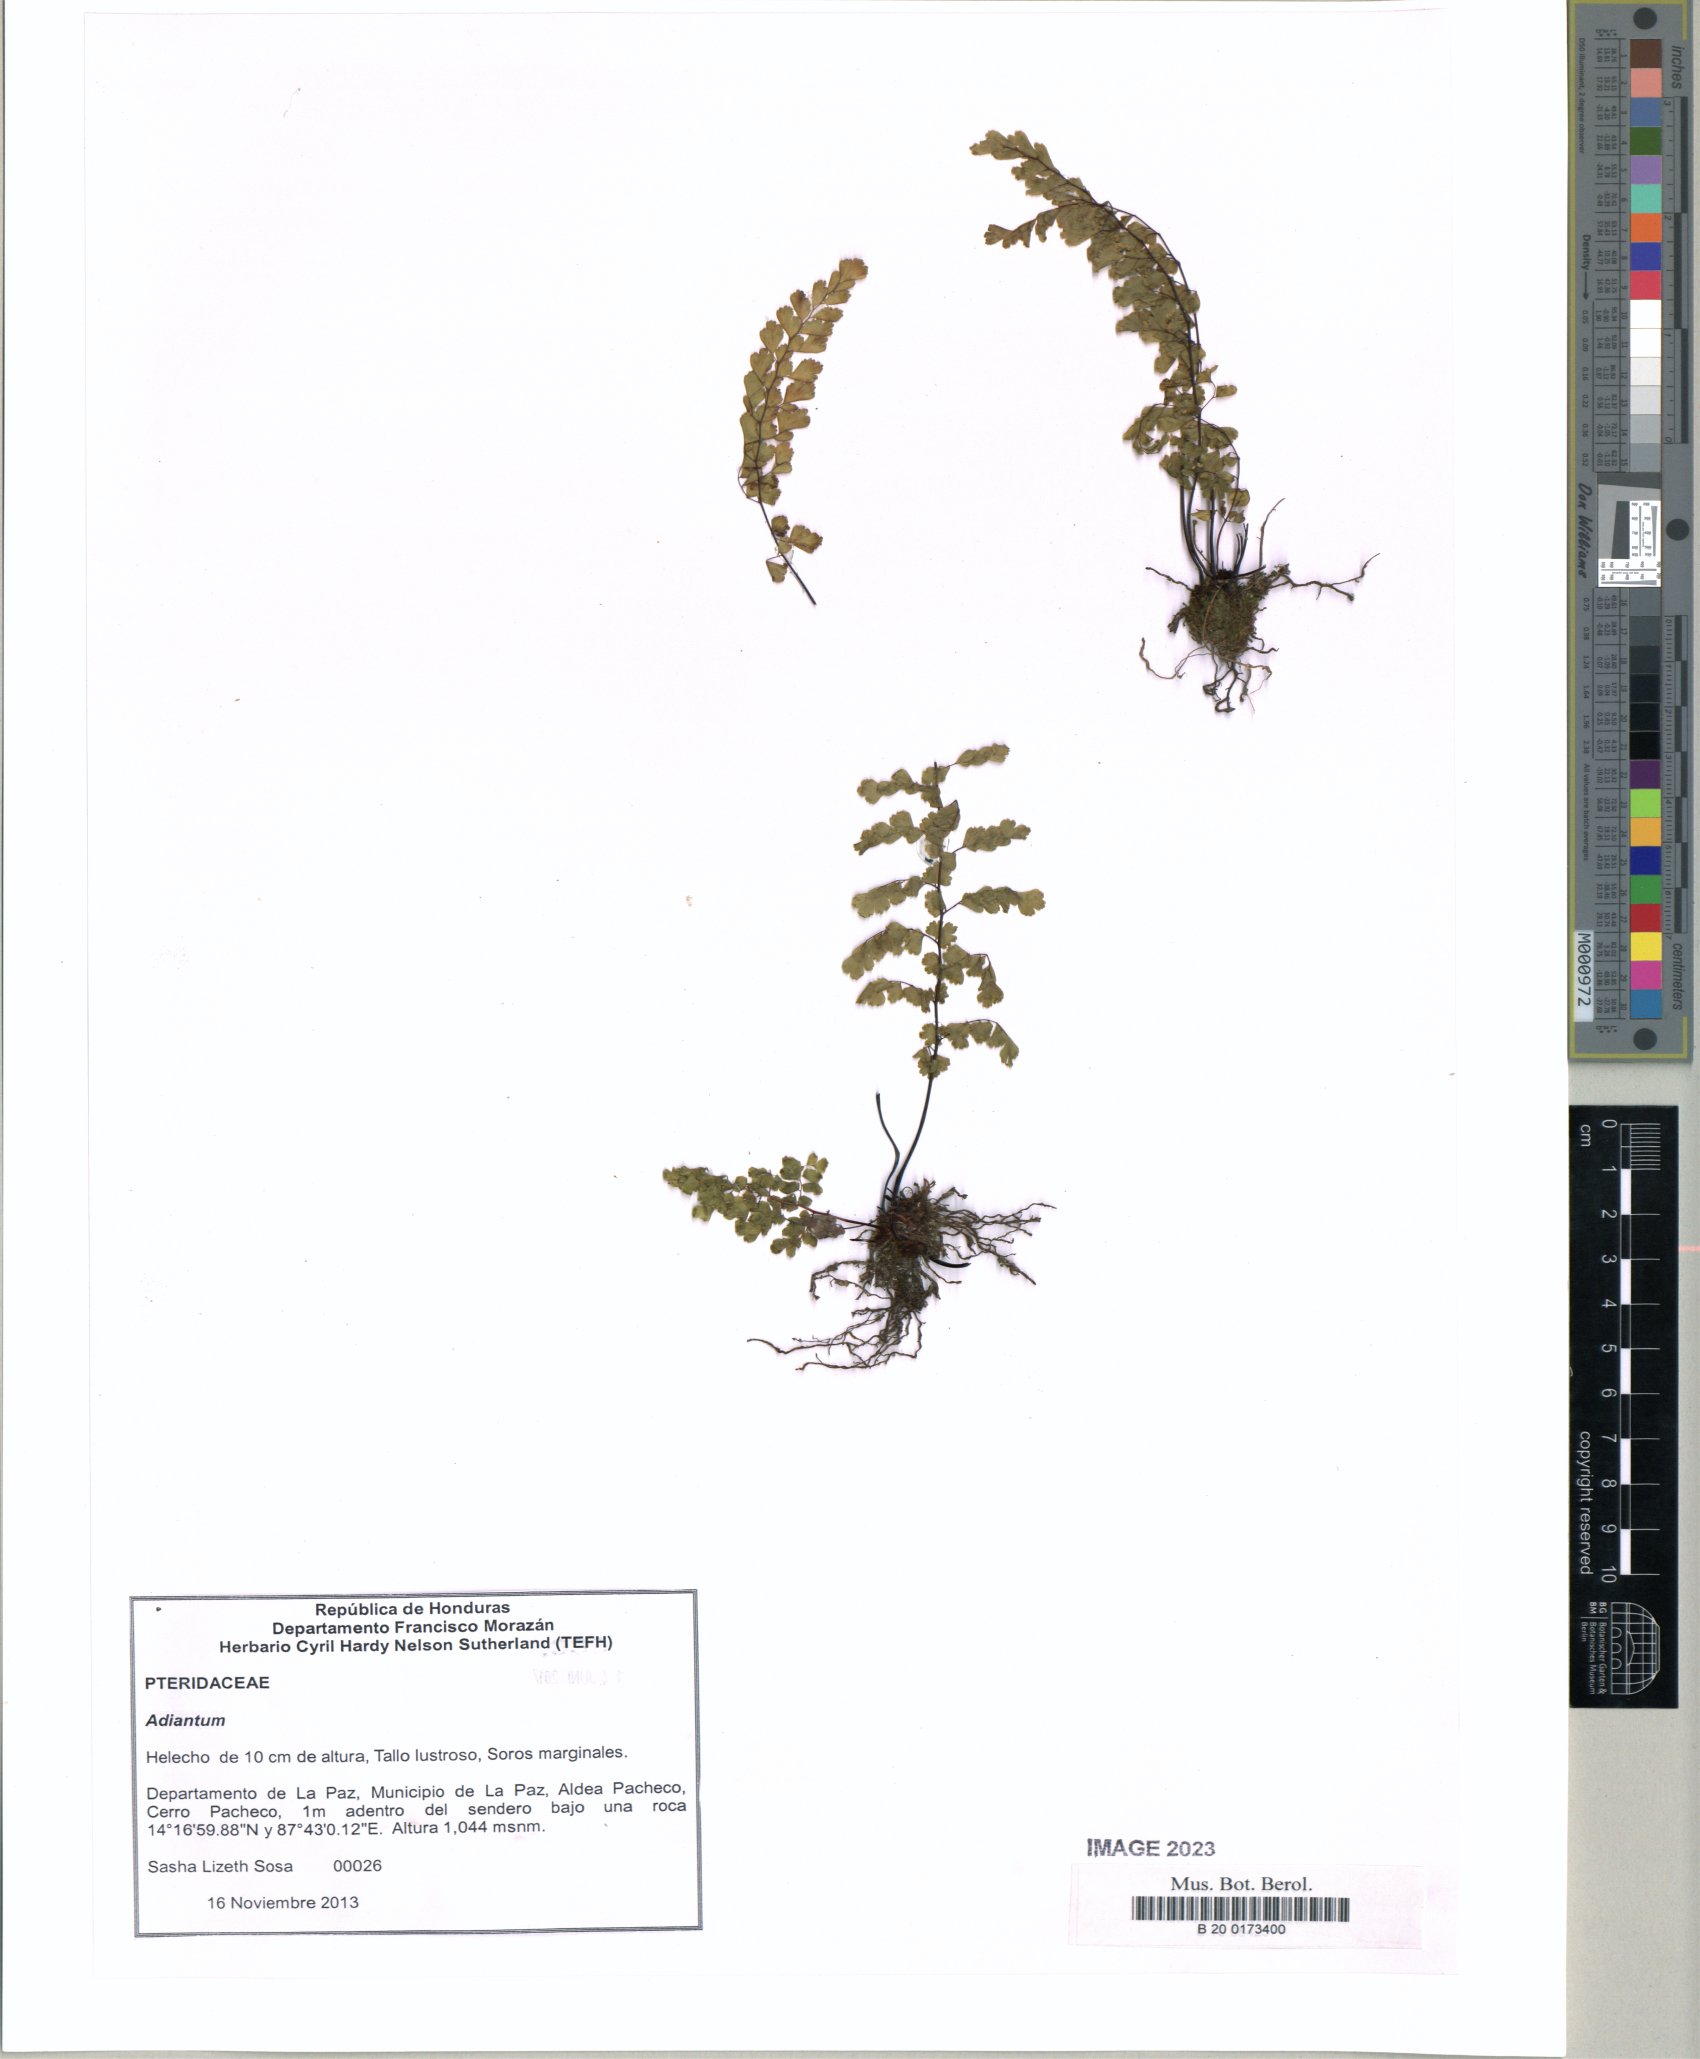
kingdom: Plantae
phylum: Tracheophyta
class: Polypodiopsida
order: Polypodiales
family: Pteridaceae
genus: Adiantum
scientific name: Adiantum concinnum
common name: Brittle maidenhair fern
